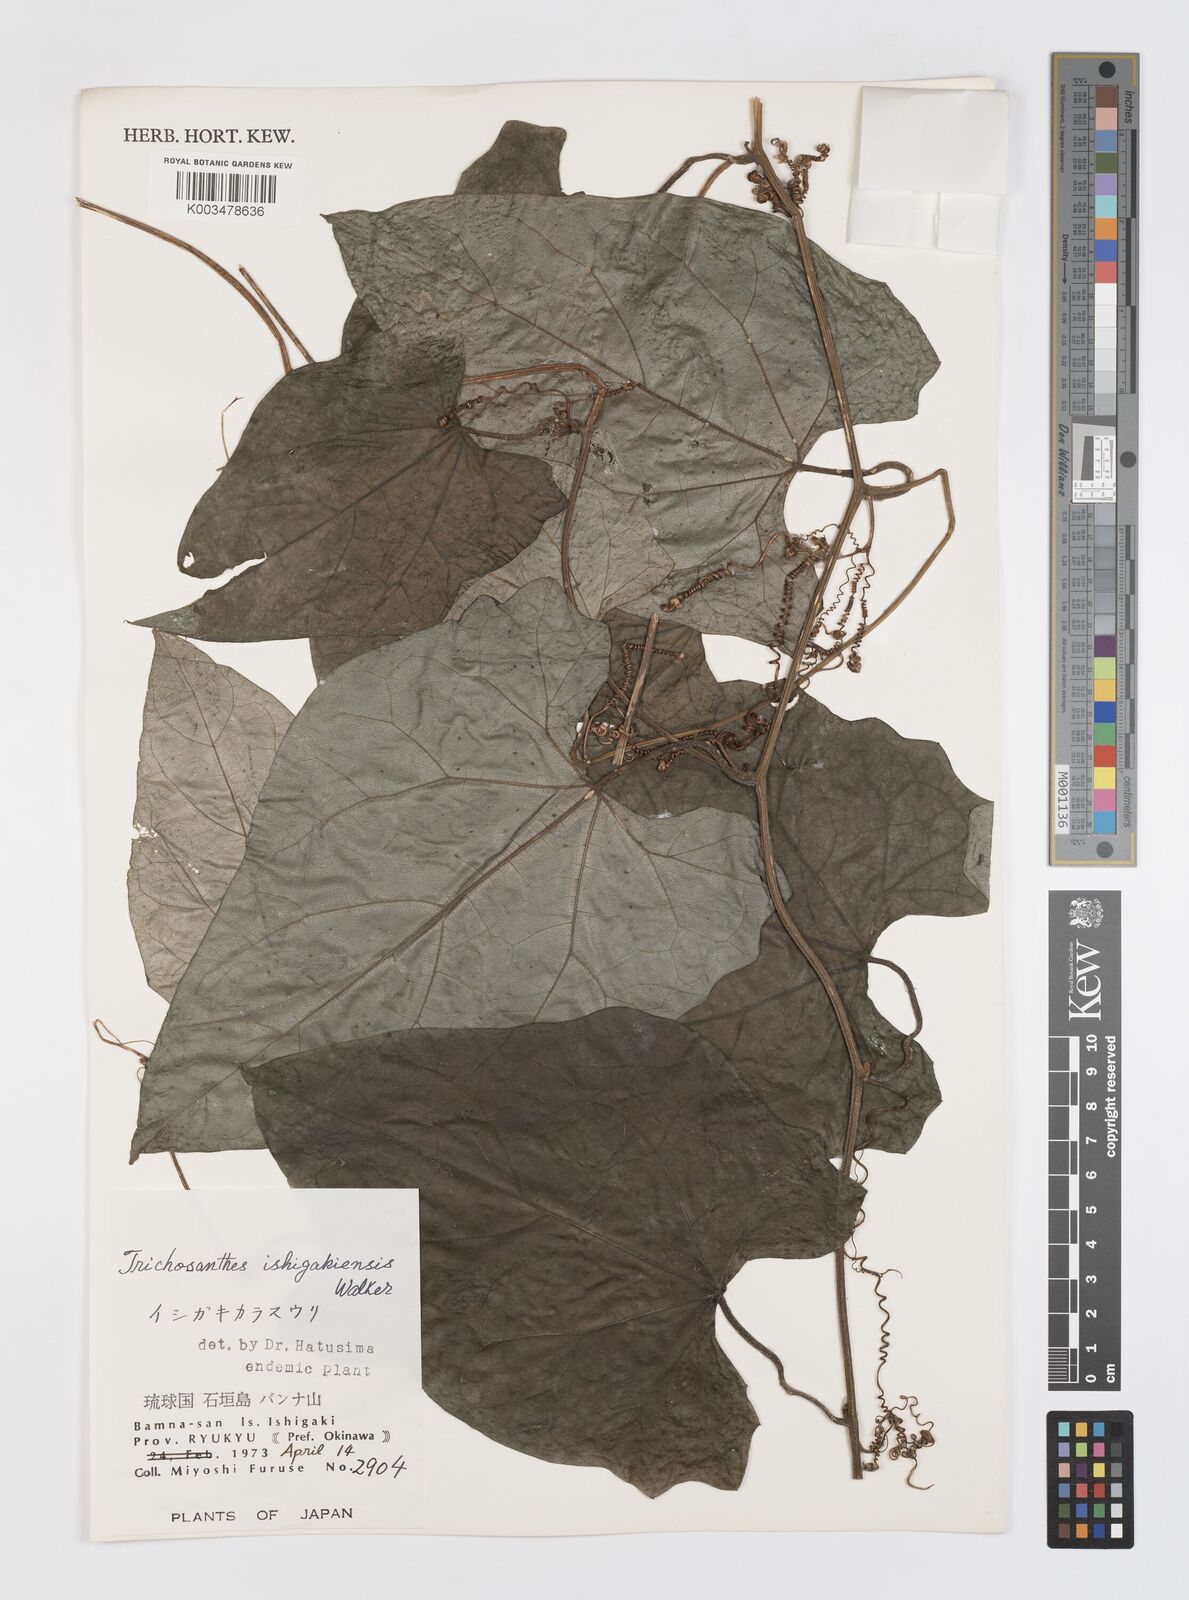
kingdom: Plantae
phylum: Tracheophyta
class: Magnoliopsida
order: Cucurbitales
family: Cucurbitaceae
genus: Trichosanthes
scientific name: Trichosanthes ishigakiensis
